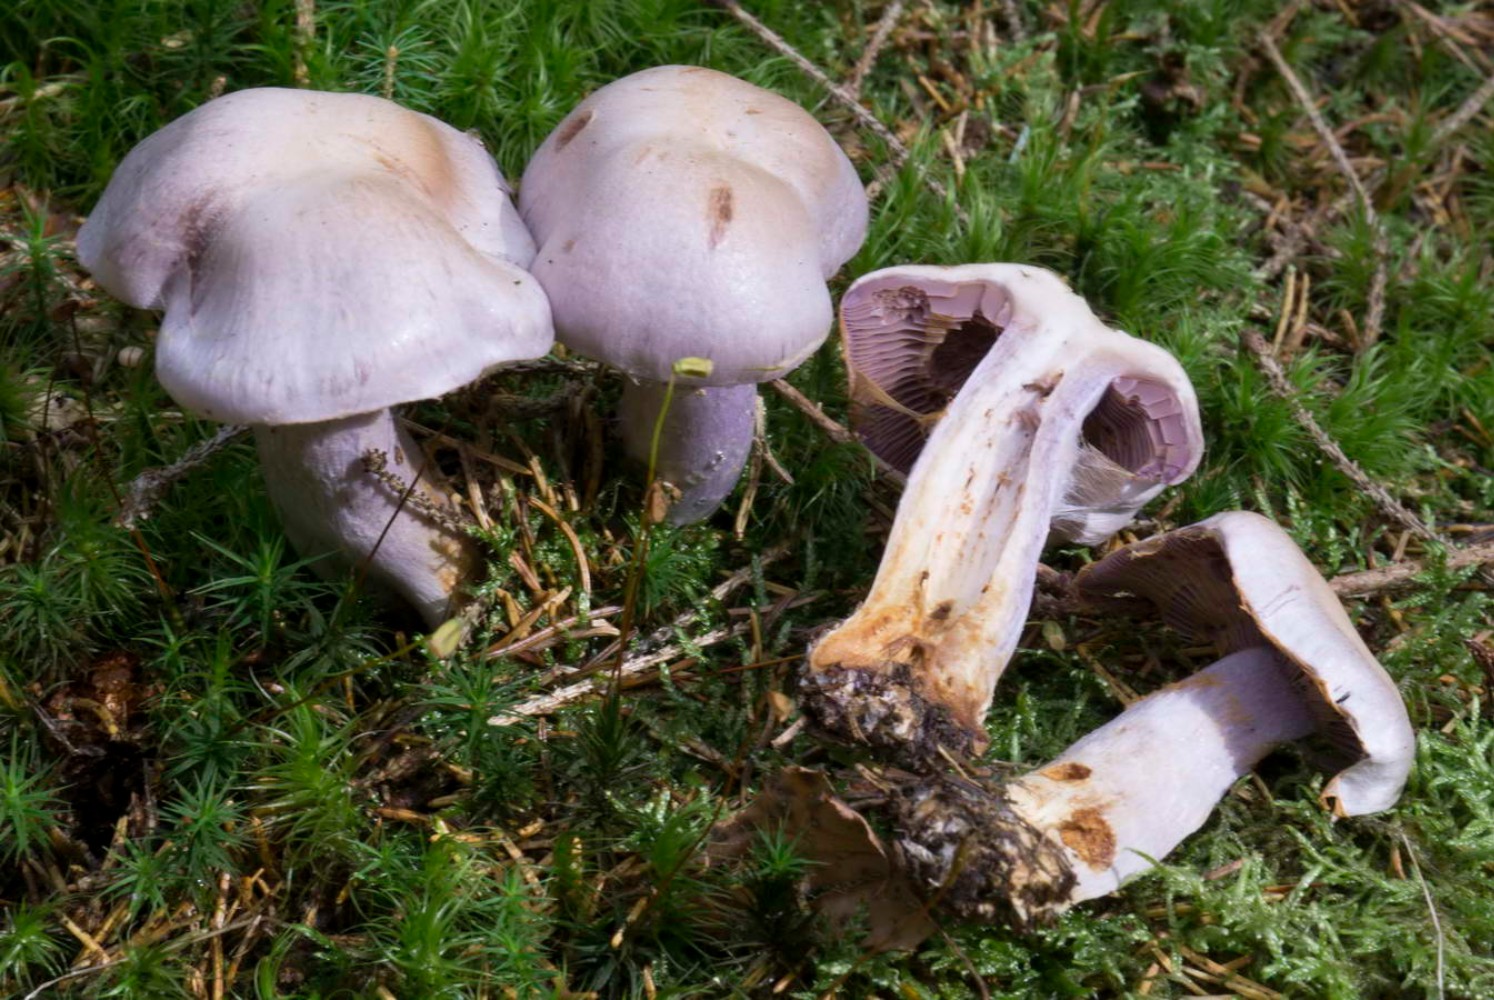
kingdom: Fungi
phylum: Basidiomycota
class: Agaricomycetes
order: Agaricales
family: Cortinariaceae
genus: Cortinarius
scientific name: Cortinarius camphoratus
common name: stinkende slørhat
